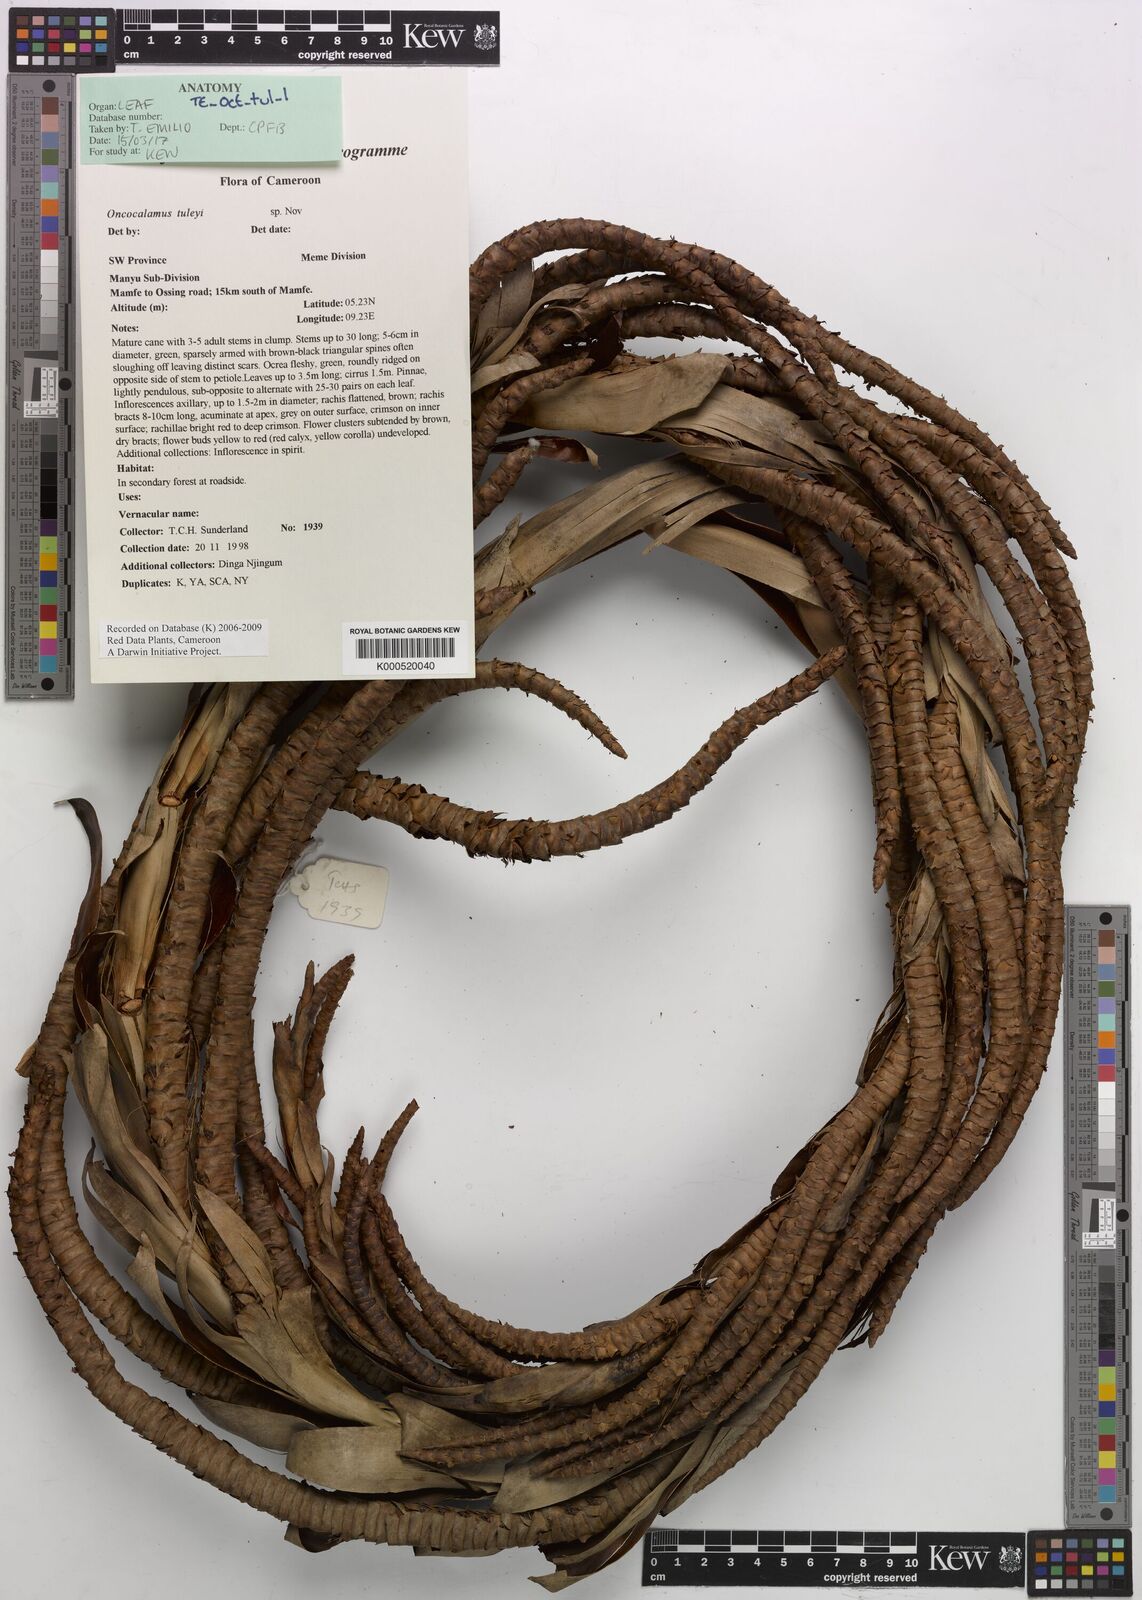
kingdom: Plantae
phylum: Tracheophyta
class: Liliopsida
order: Arecales
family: Arecaceae
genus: Oncocalamus
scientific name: Oncocalamus tuleyi
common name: Rattan
